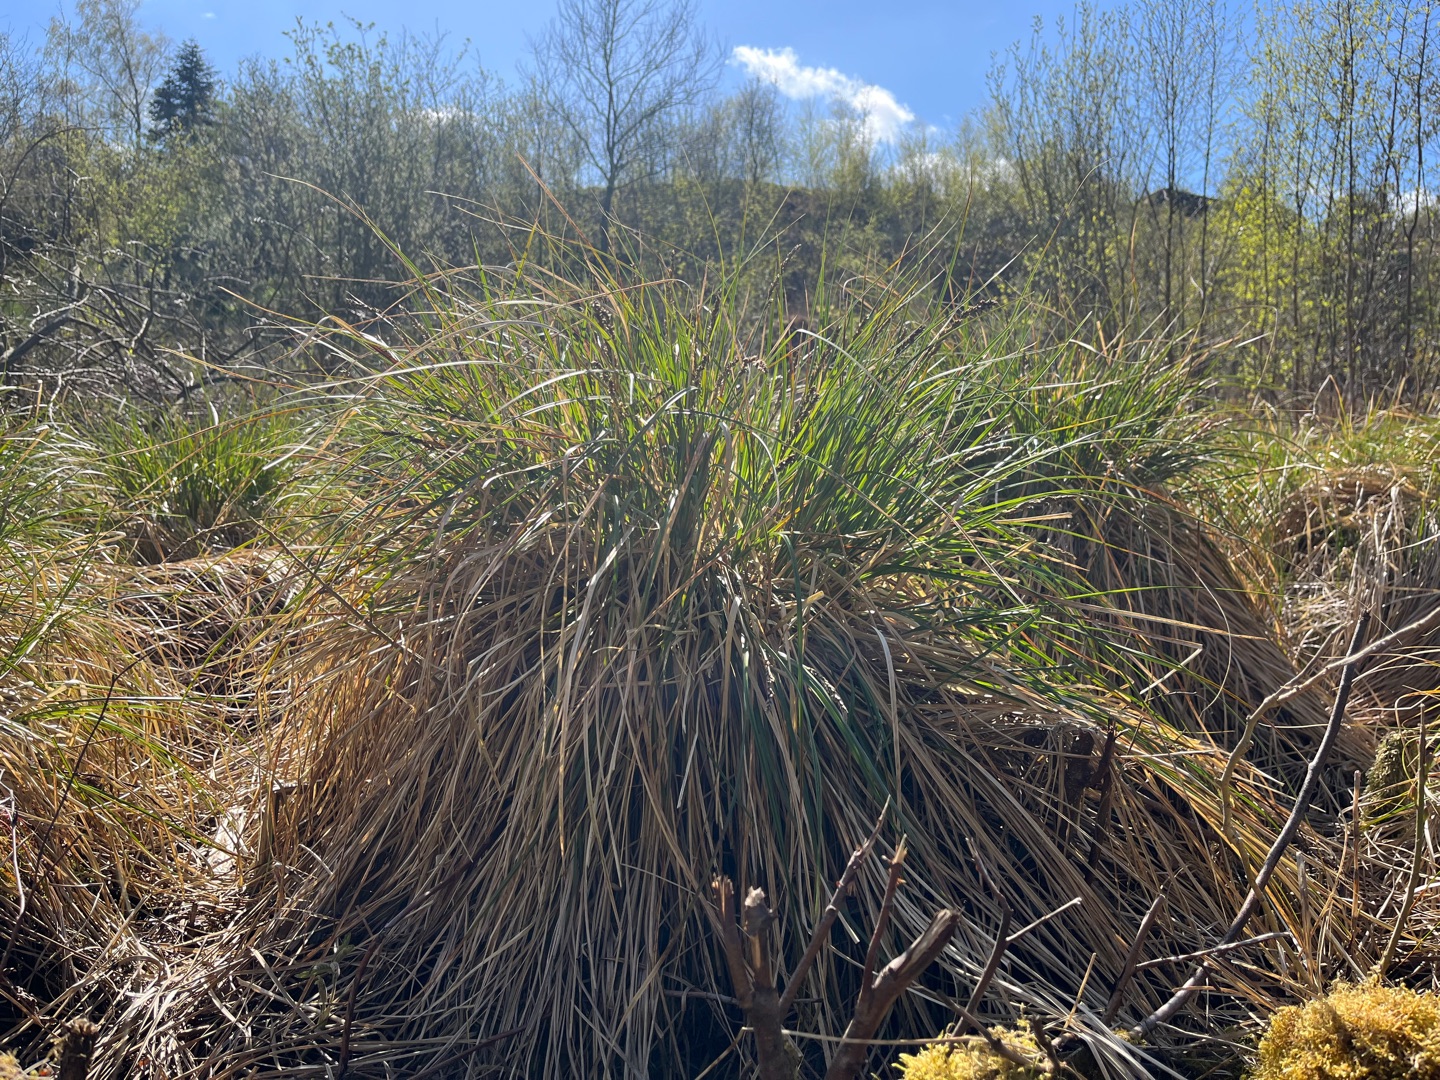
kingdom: Plantae
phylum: Tracheophyta
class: Liliopsida
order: Poales
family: Cyperaceae
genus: Carex
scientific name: Carex paniculata
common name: Top-star
